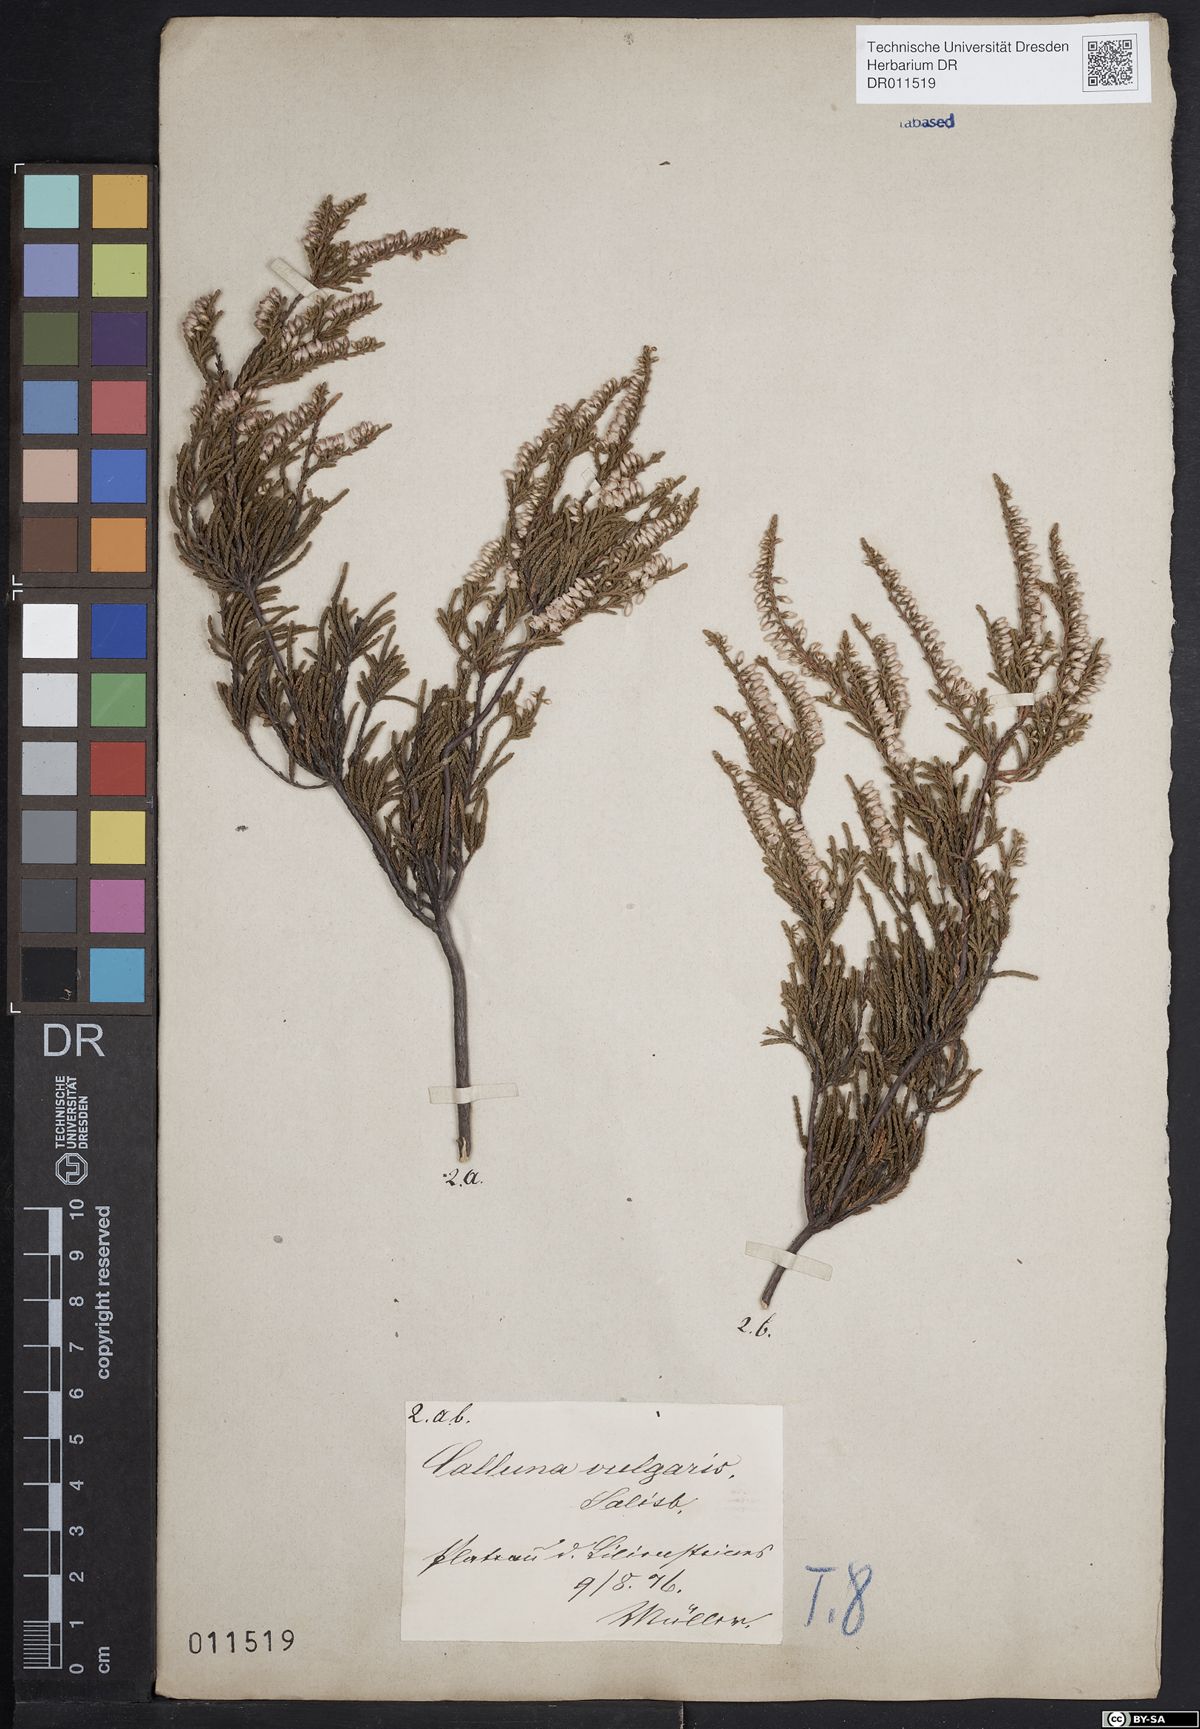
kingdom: Plantae
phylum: Tracheophyta
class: Magnoliopsida
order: Ericales
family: Ericaceae
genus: Calluna
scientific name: Calluna vulgaris
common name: Heather
